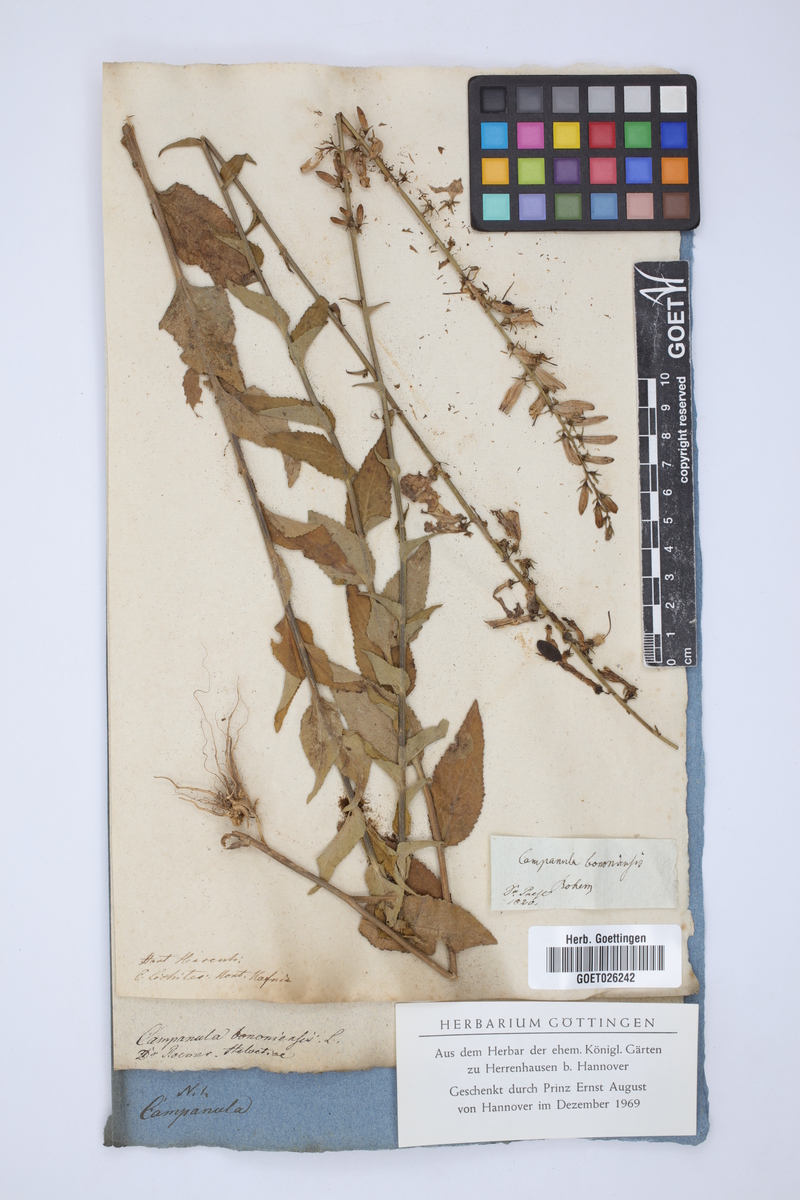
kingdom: Plantae
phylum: Tracheophyta
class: Magnoliopsida
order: Asterales
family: Campanulaceae
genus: Campanula
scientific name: Campanula bononiensis
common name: Pale bellflower
